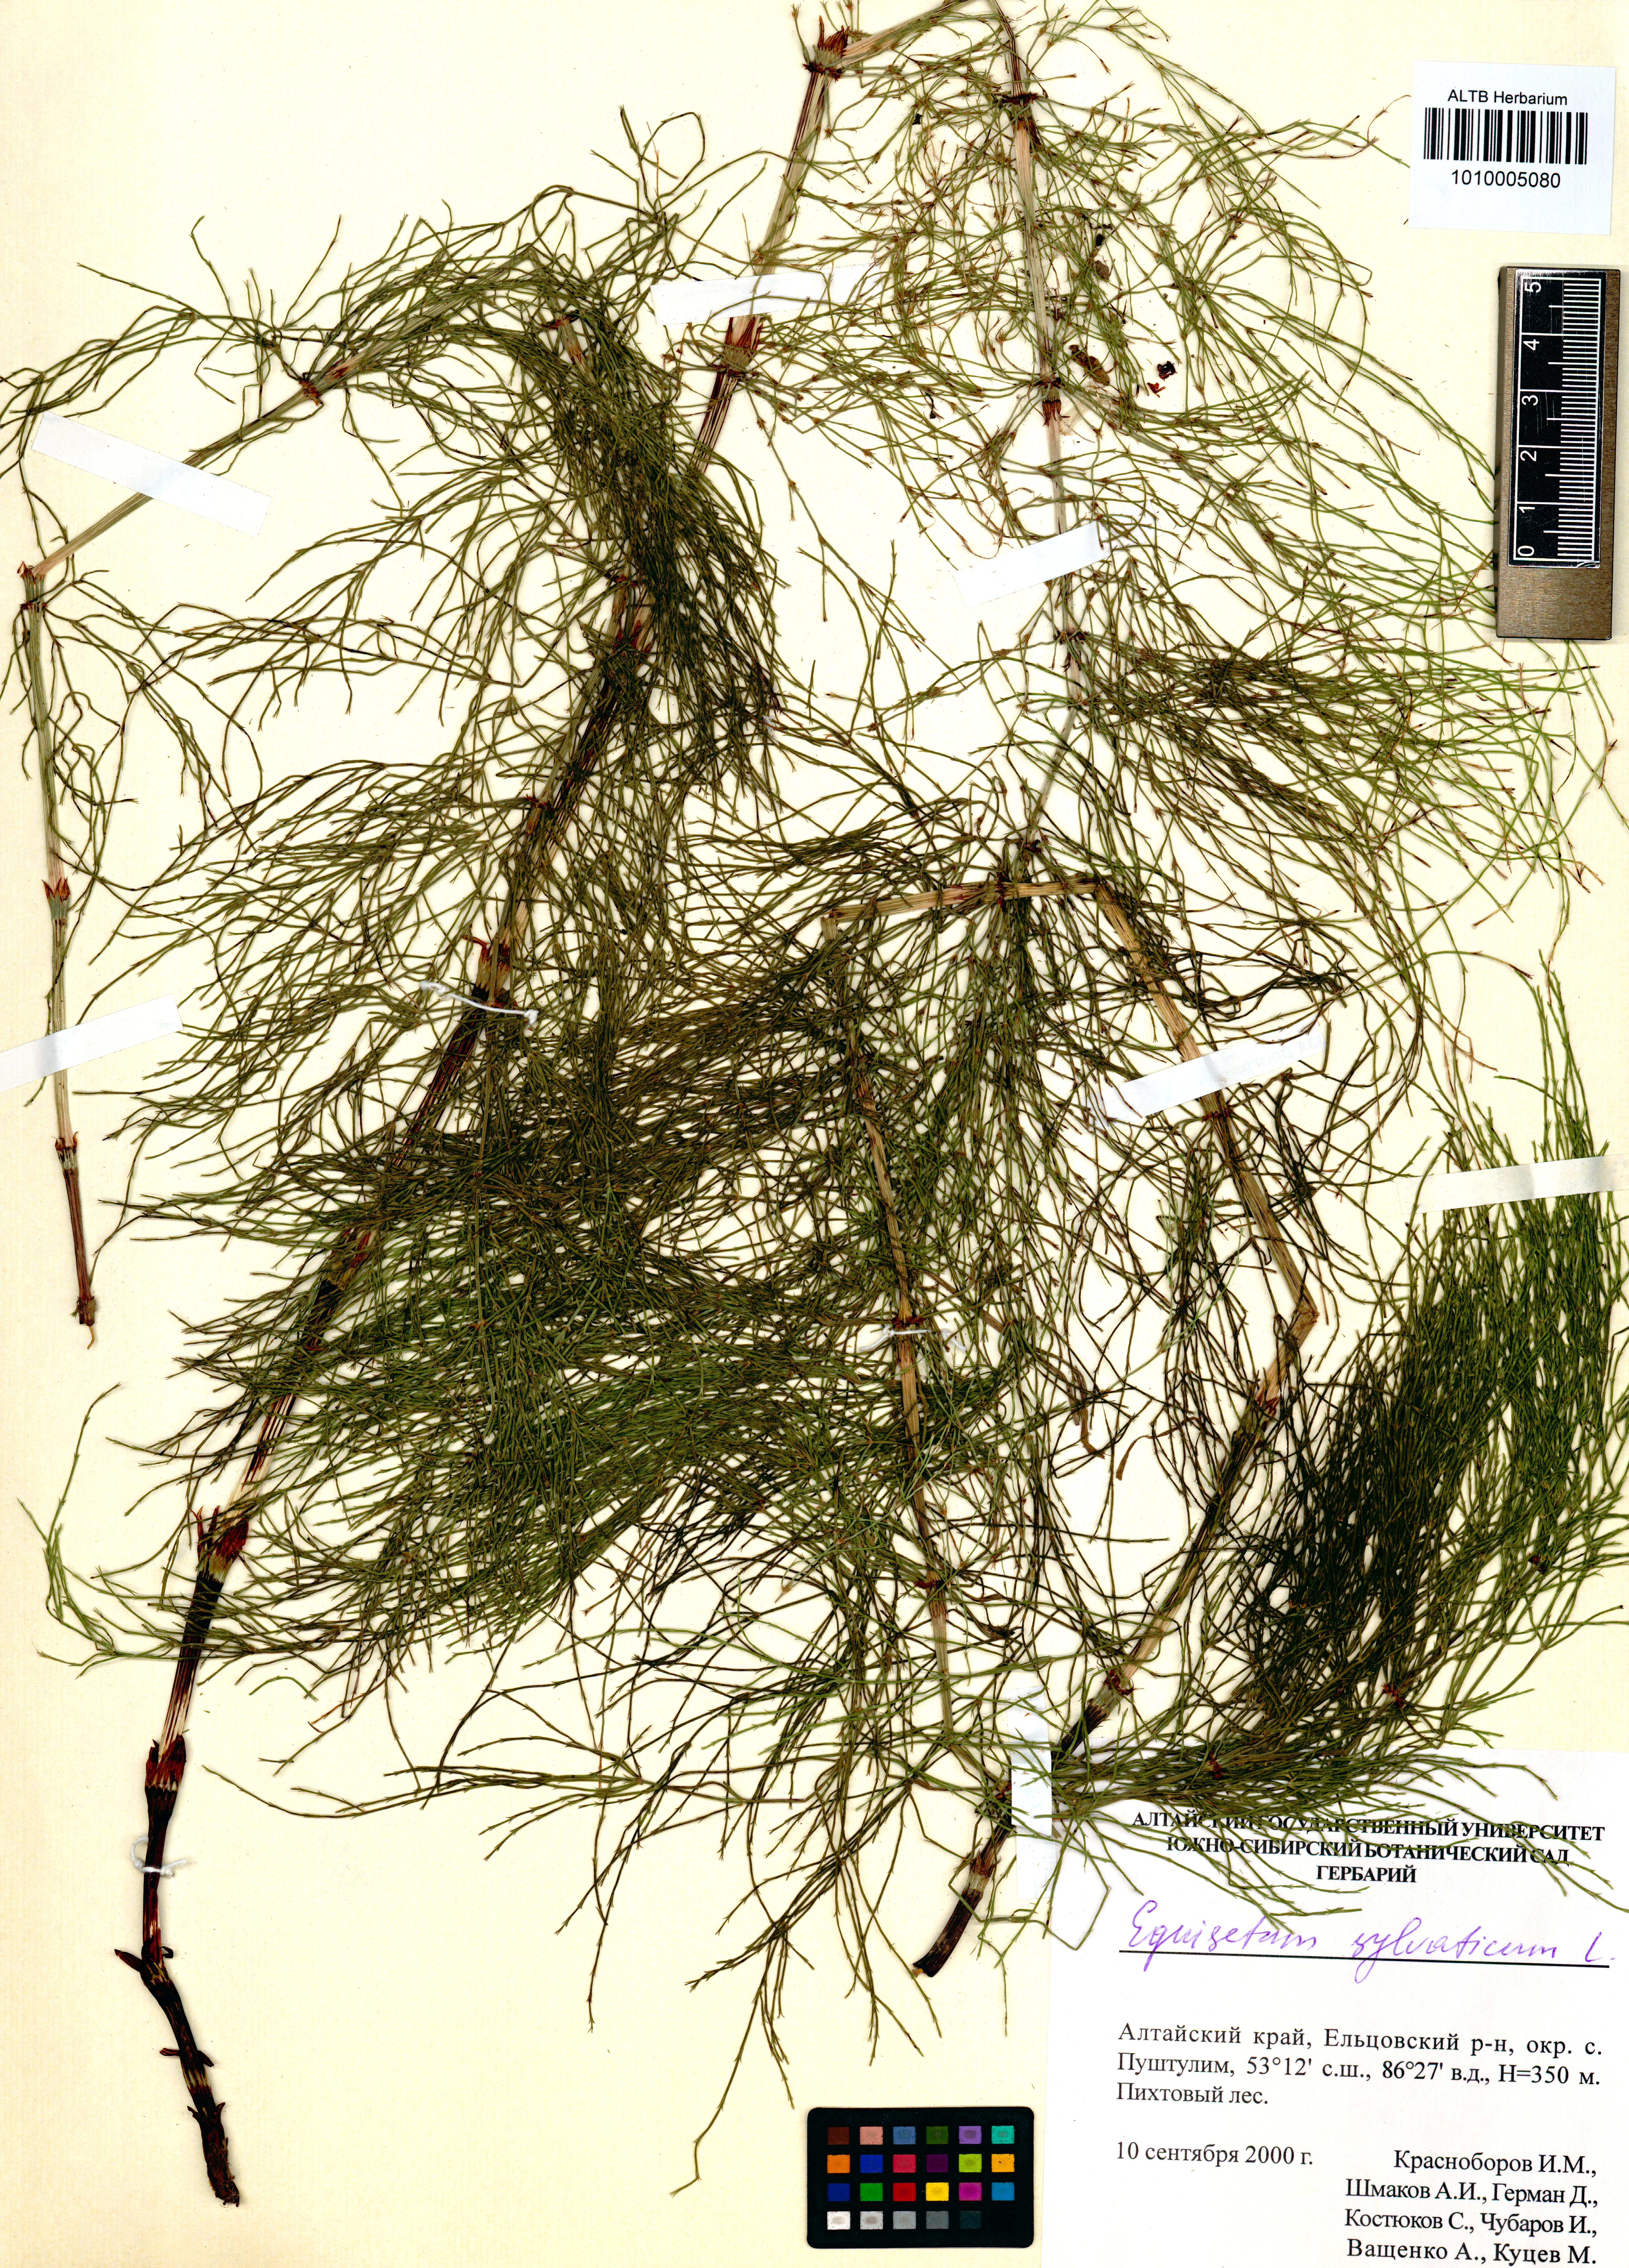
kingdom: Plantae
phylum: Tracheophyta
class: Polypodiopsida
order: Equisetales
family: Equisetaceae
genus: Equisetum
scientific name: Equisetum sylvaticum
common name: Wood horsetail
